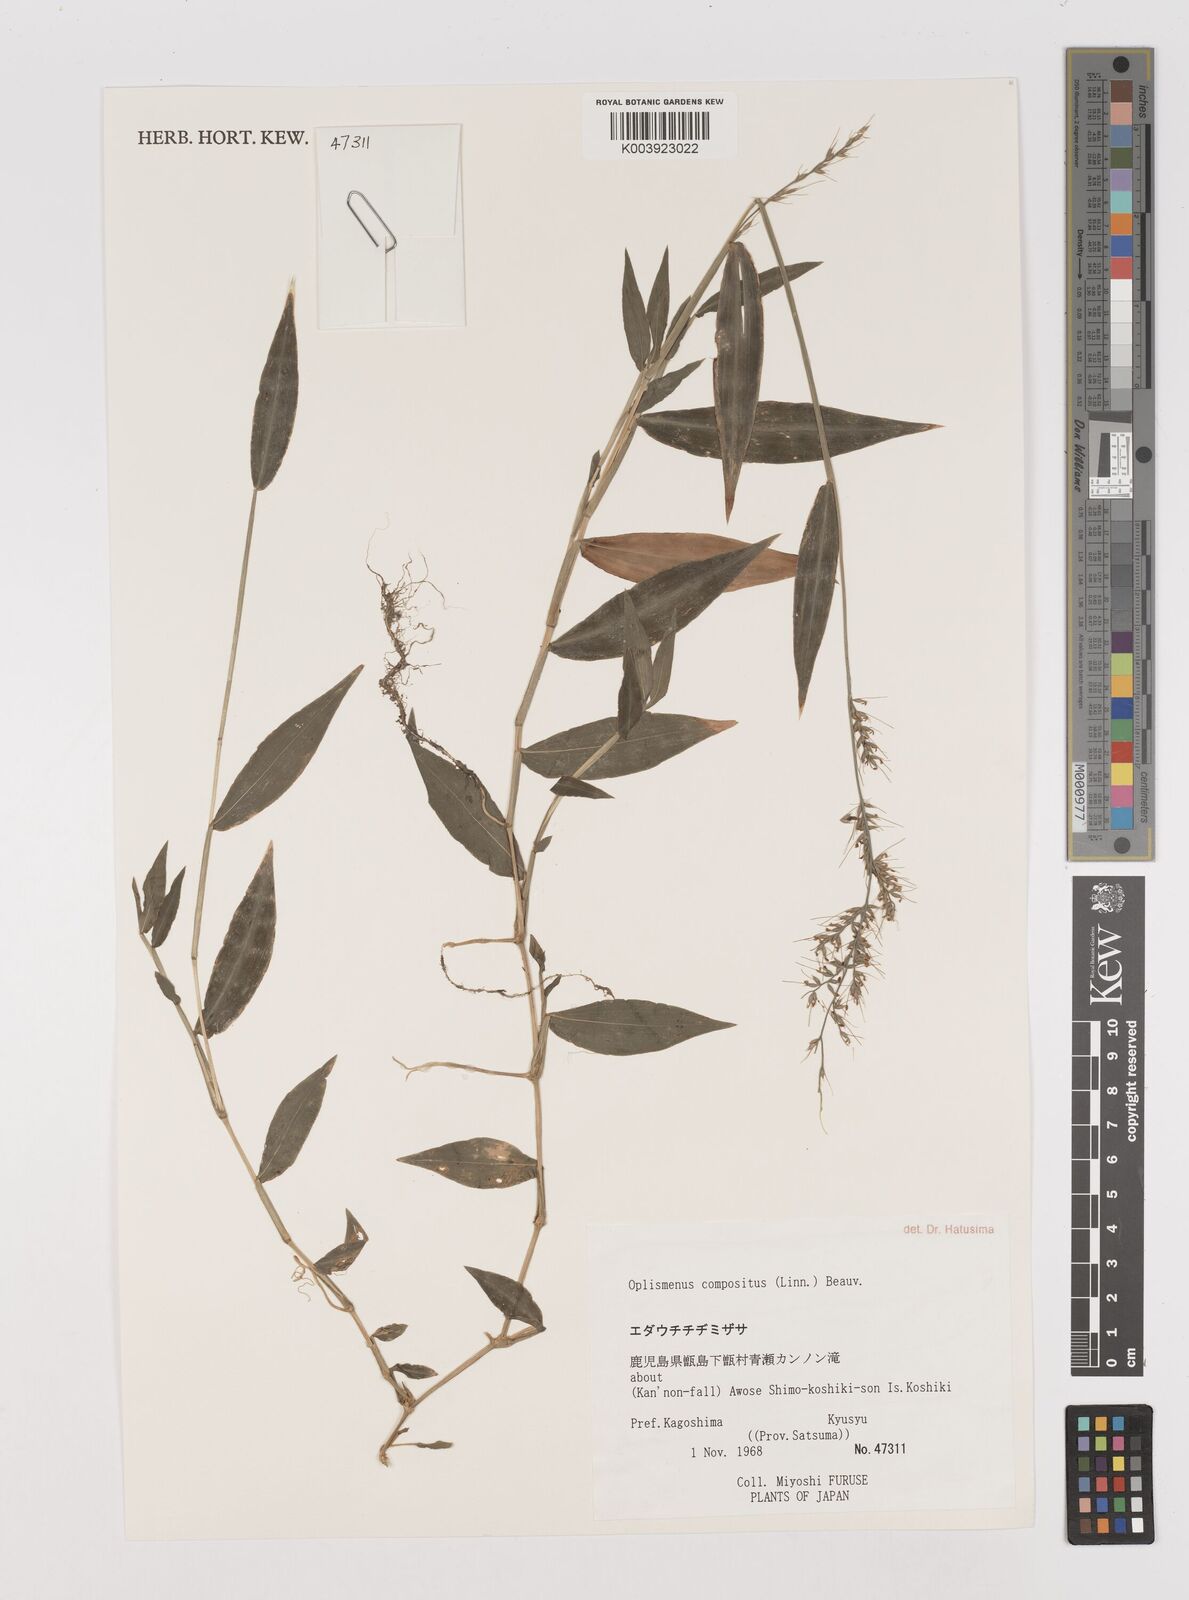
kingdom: Plantae
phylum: Tracheophyta
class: Liliopsida
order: Poales
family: Poaceae
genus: Oplismenus
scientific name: Oplismenus compositus
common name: Running mountain grass
